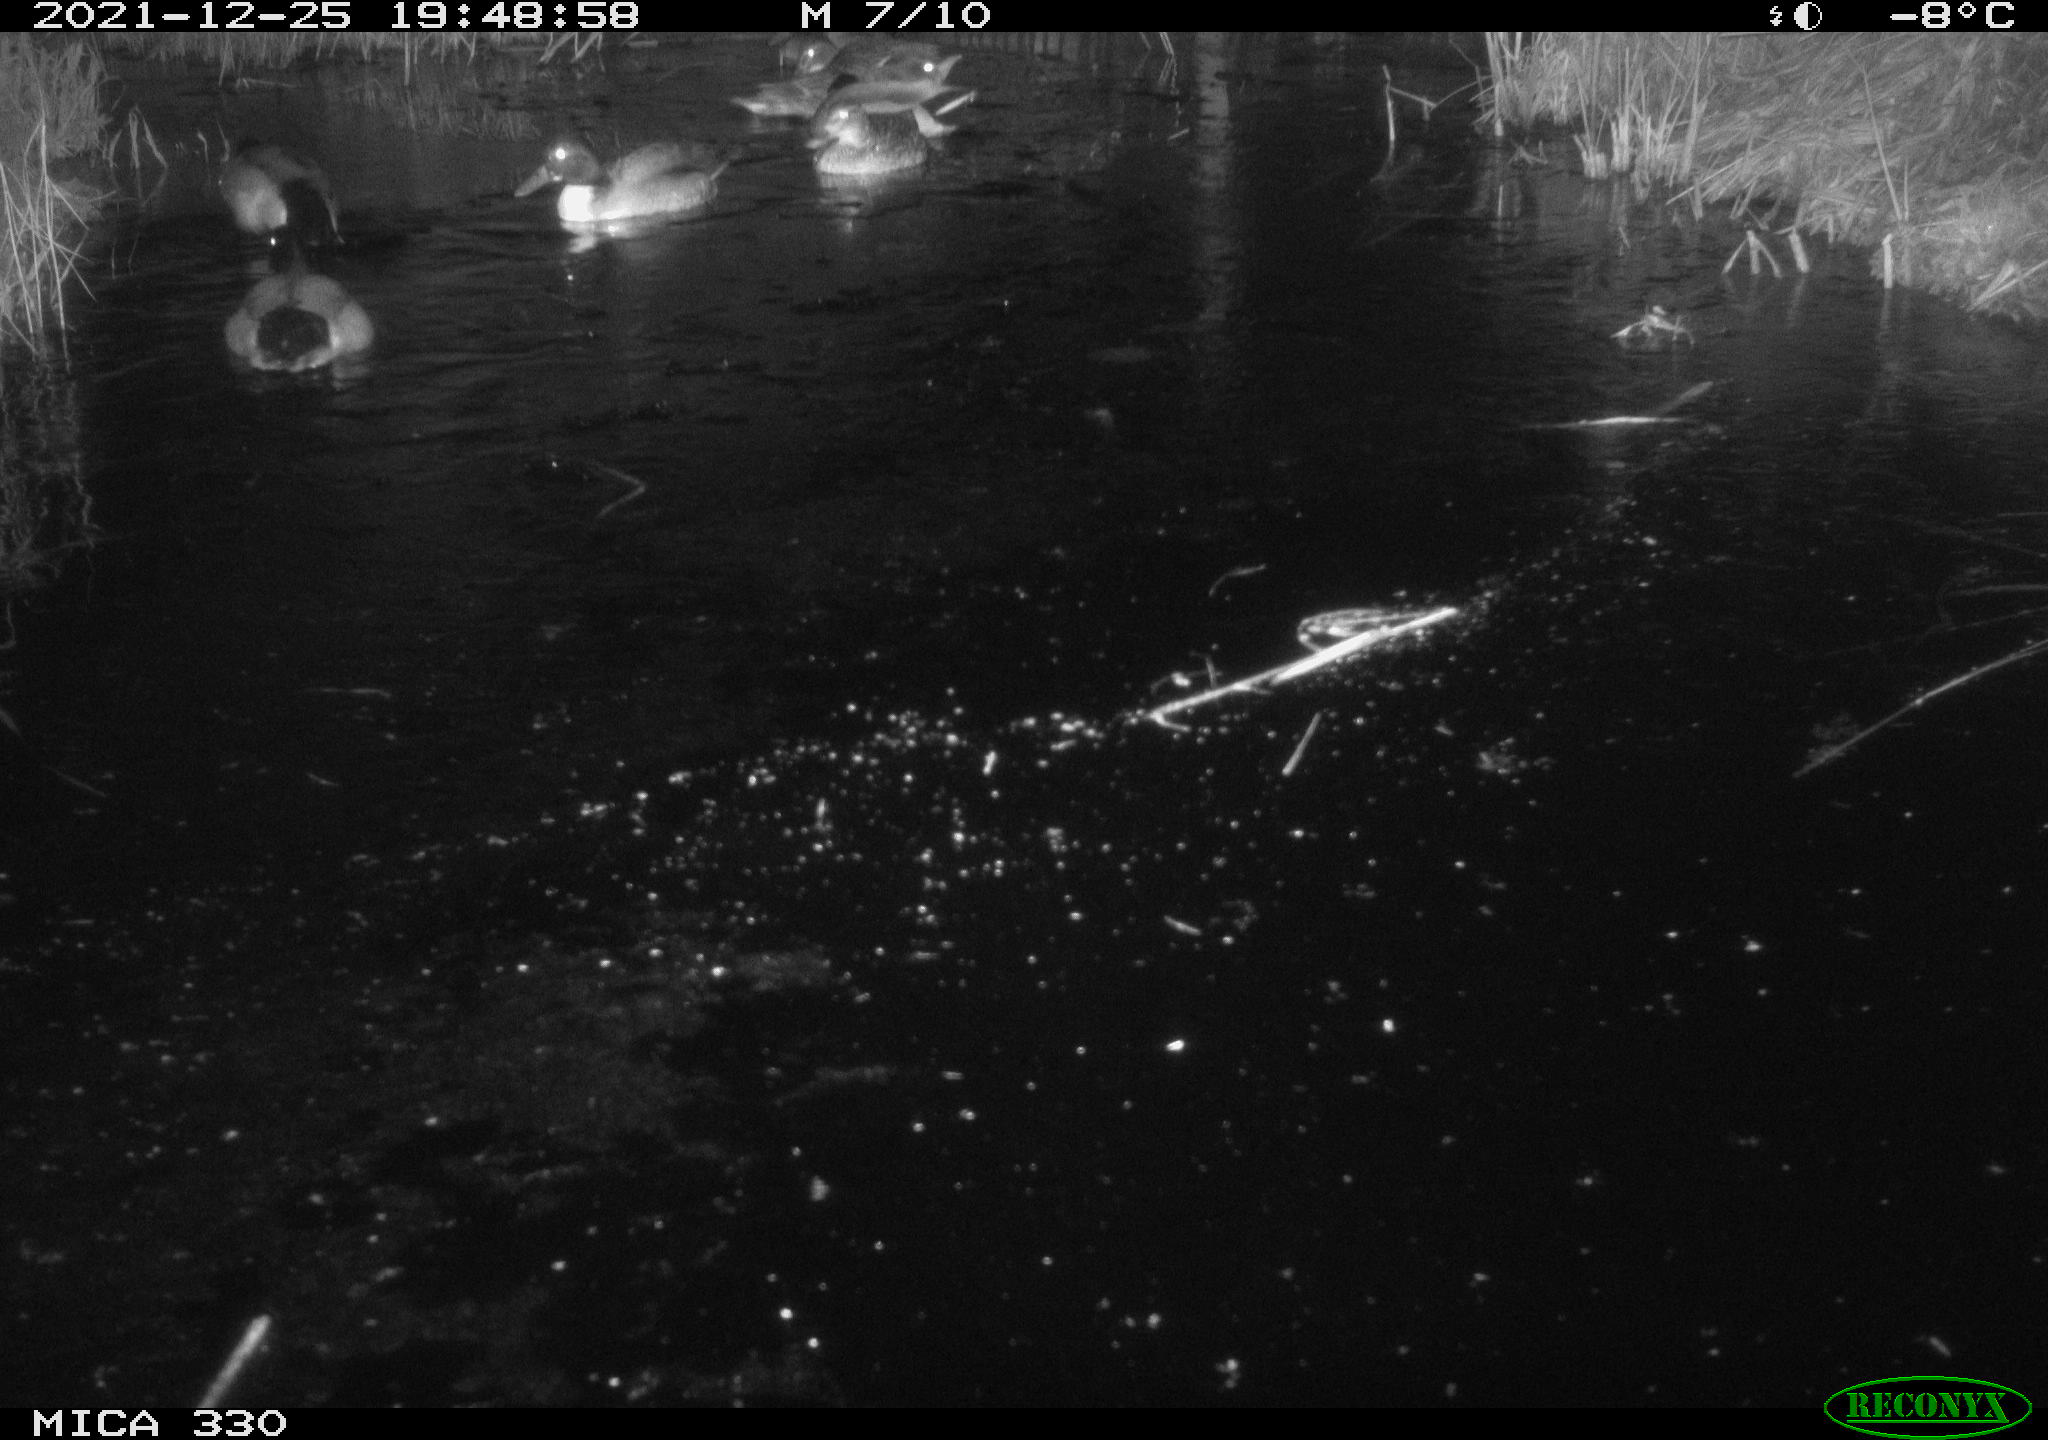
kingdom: Animalia
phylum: Chordata
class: Aves
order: Anseriformes
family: Anatidae
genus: Anas
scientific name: Anas platyrhynchos
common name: Mallard
